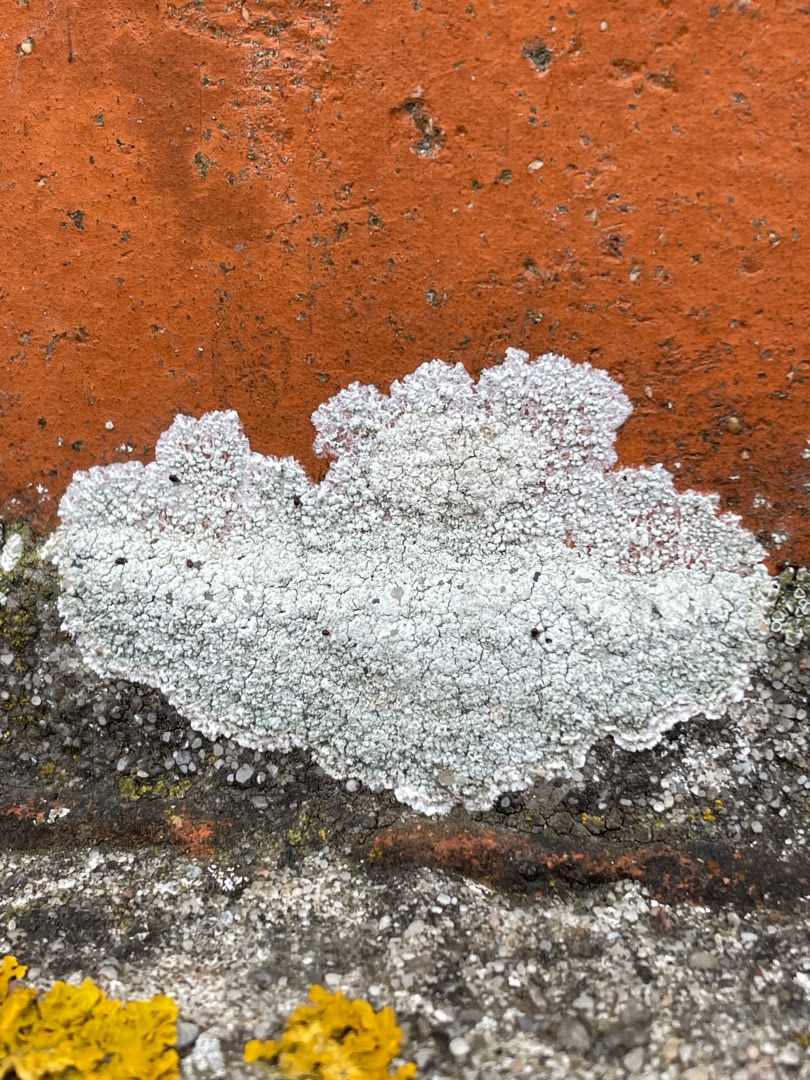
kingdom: Fungi
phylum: Ascomycota
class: Lecanoromycetes
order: Lecanorales
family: Lecanoraceae
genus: Glaucomaria
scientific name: Glaucomaria rupicola
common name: Stengærde-kantskivelav
